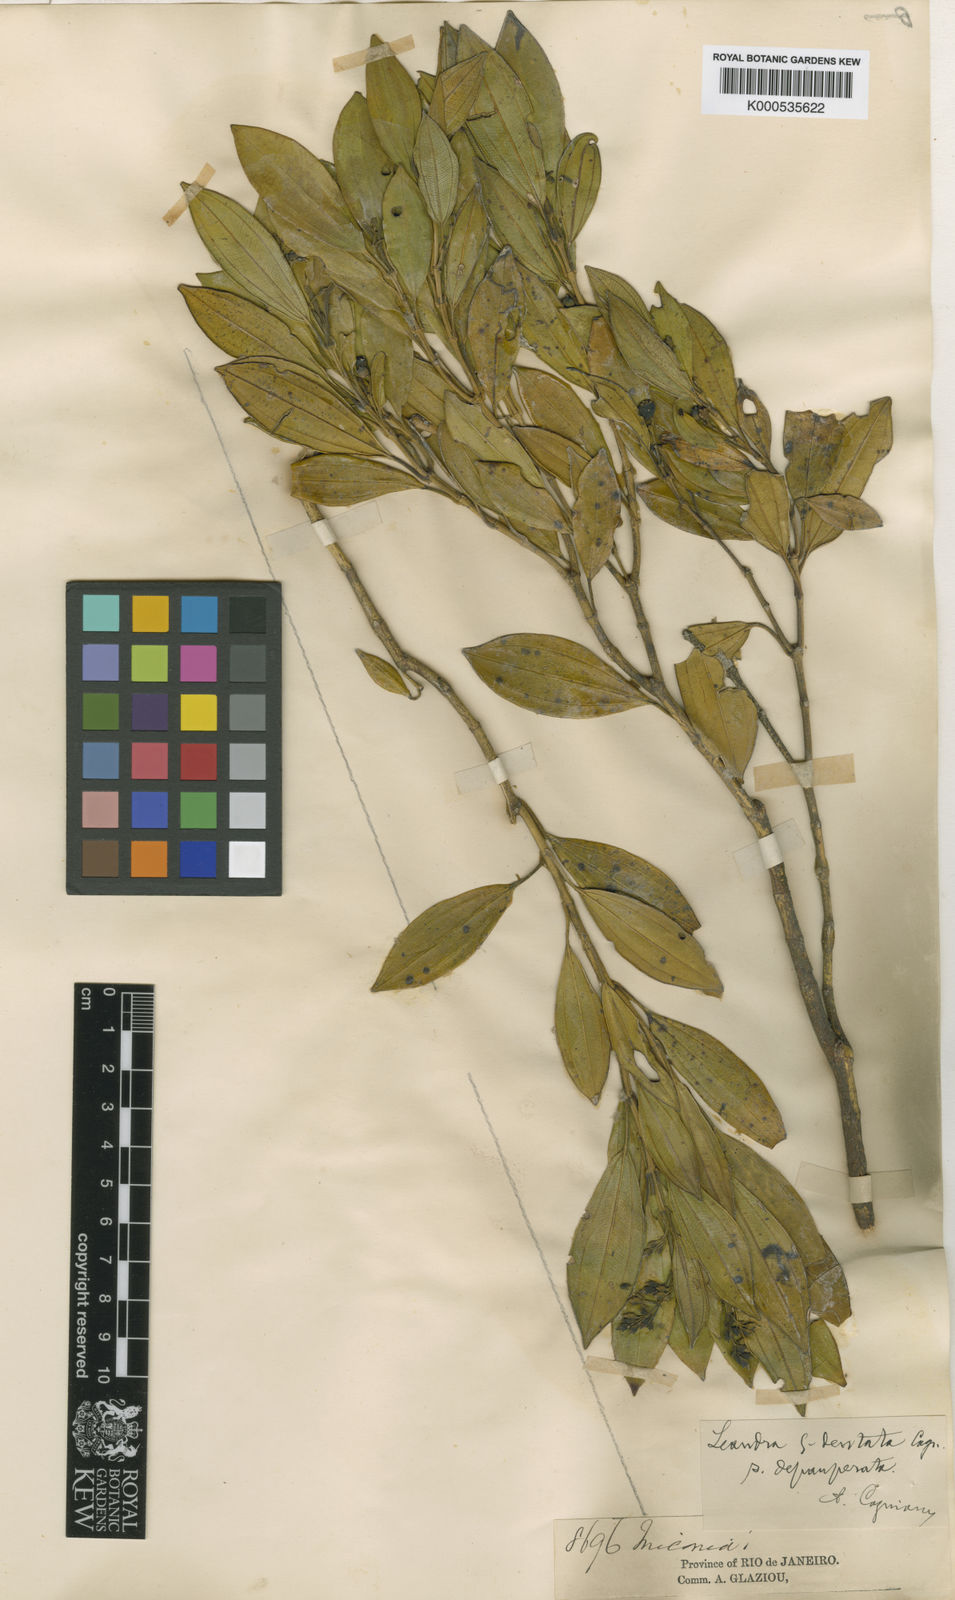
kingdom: Plantae
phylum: Tracheophyta
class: Magnoliopsida
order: Myrtales
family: Melastomataceae
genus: Miconia
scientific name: Miconia quinquedentata
